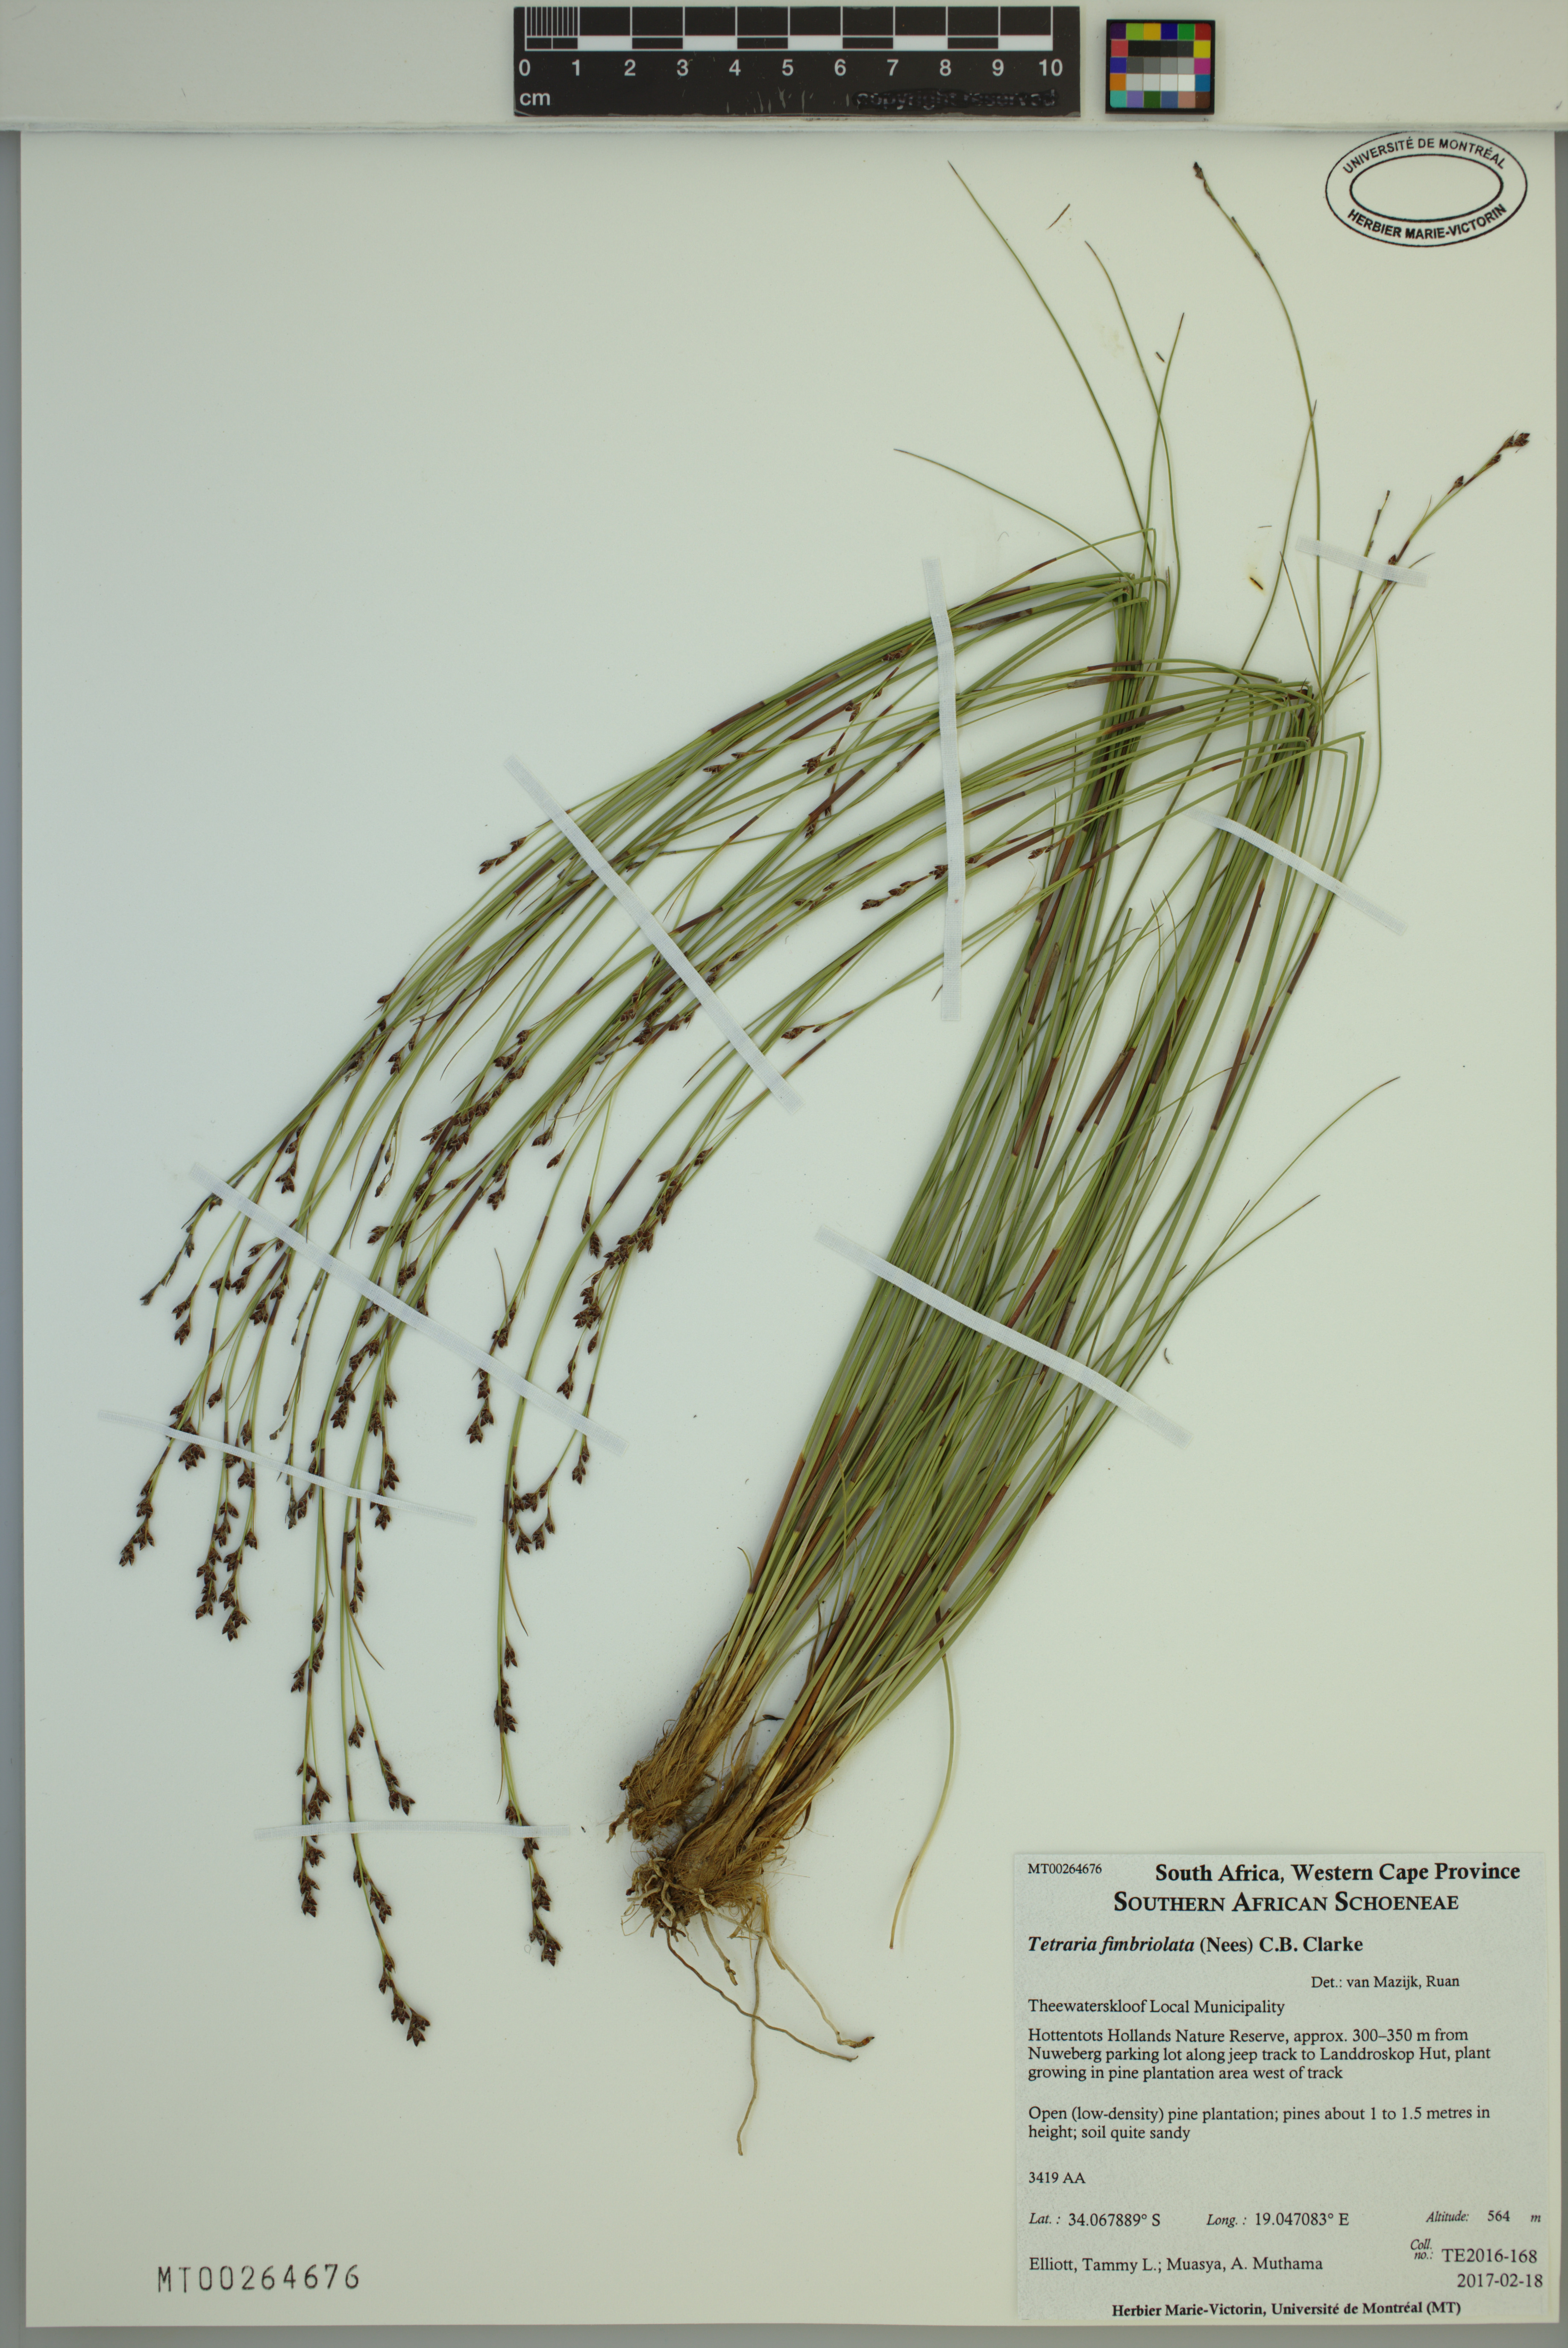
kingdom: Plantae
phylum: Tracheophyta
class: Liliopsida
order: Poales
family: Cyperaceae
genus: Tetraria
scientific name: Tetraria fimbriolata
